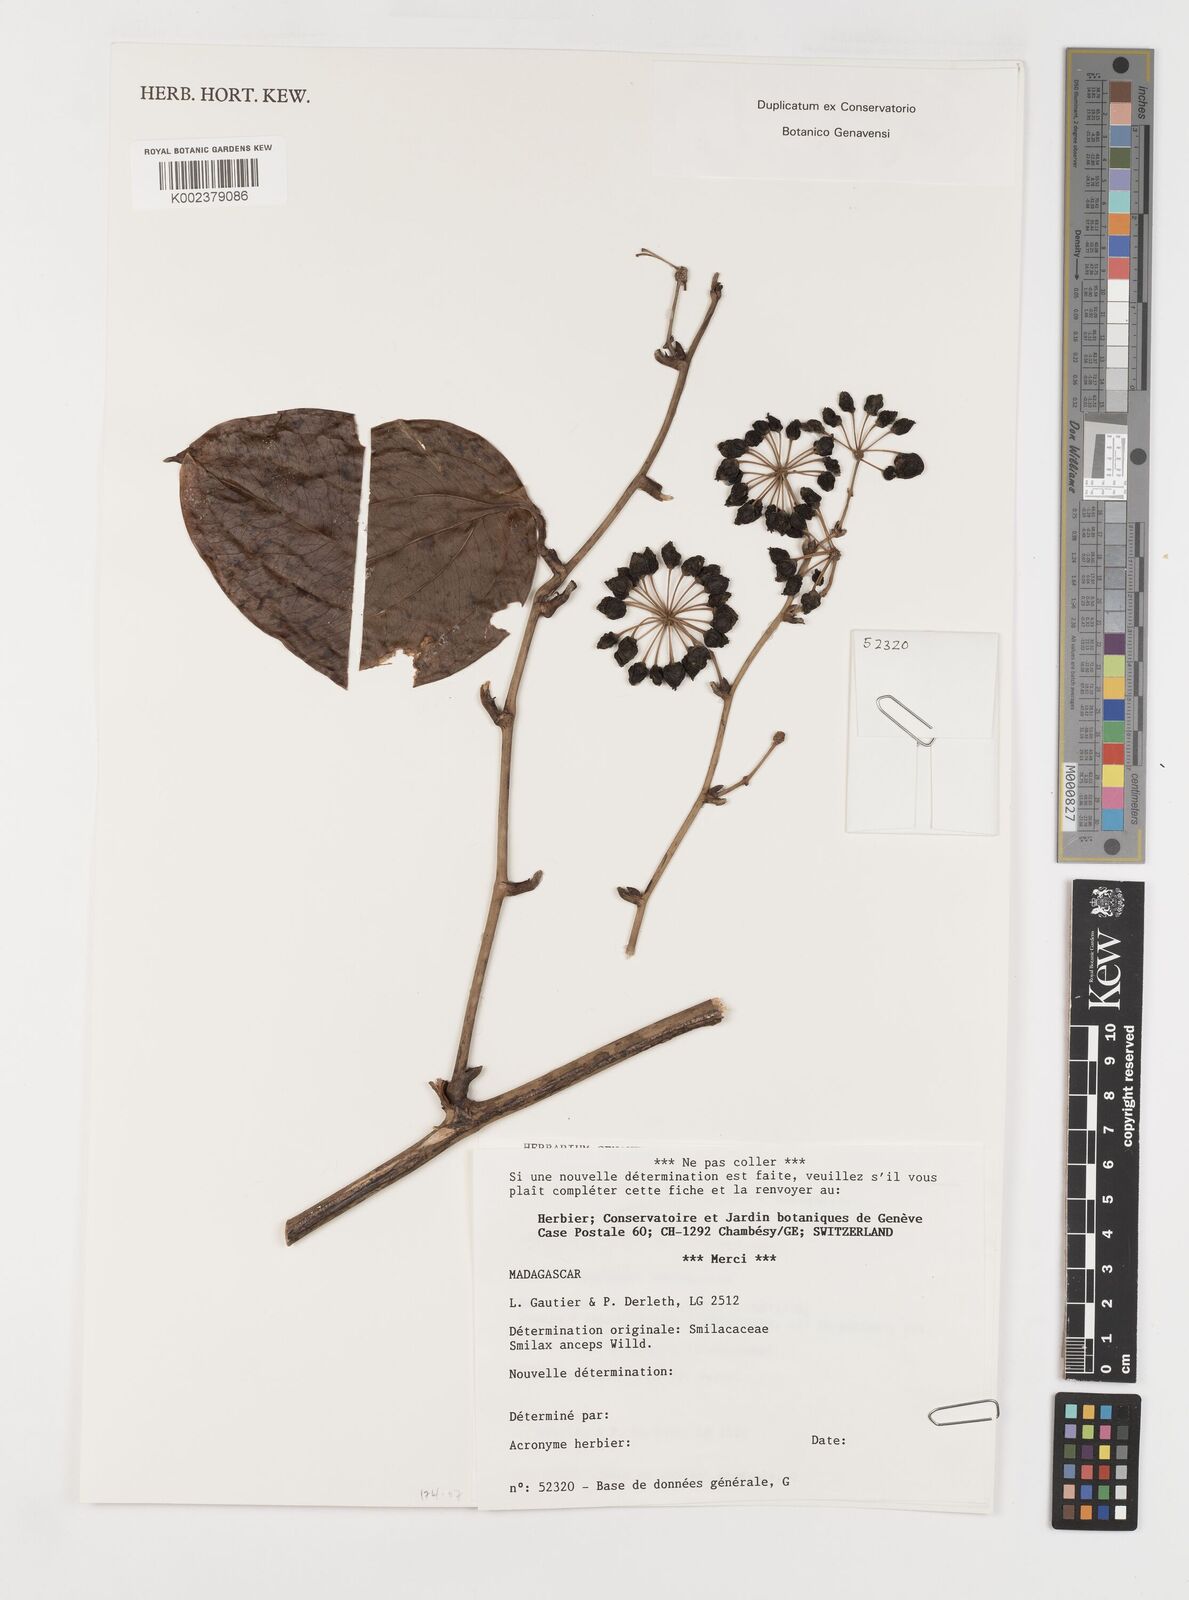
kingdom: Plantae
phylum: Tracheophyta
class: Liliopsida
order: Liliales
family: Smilacaceae
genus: Smilax
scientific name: Smilax anceps
